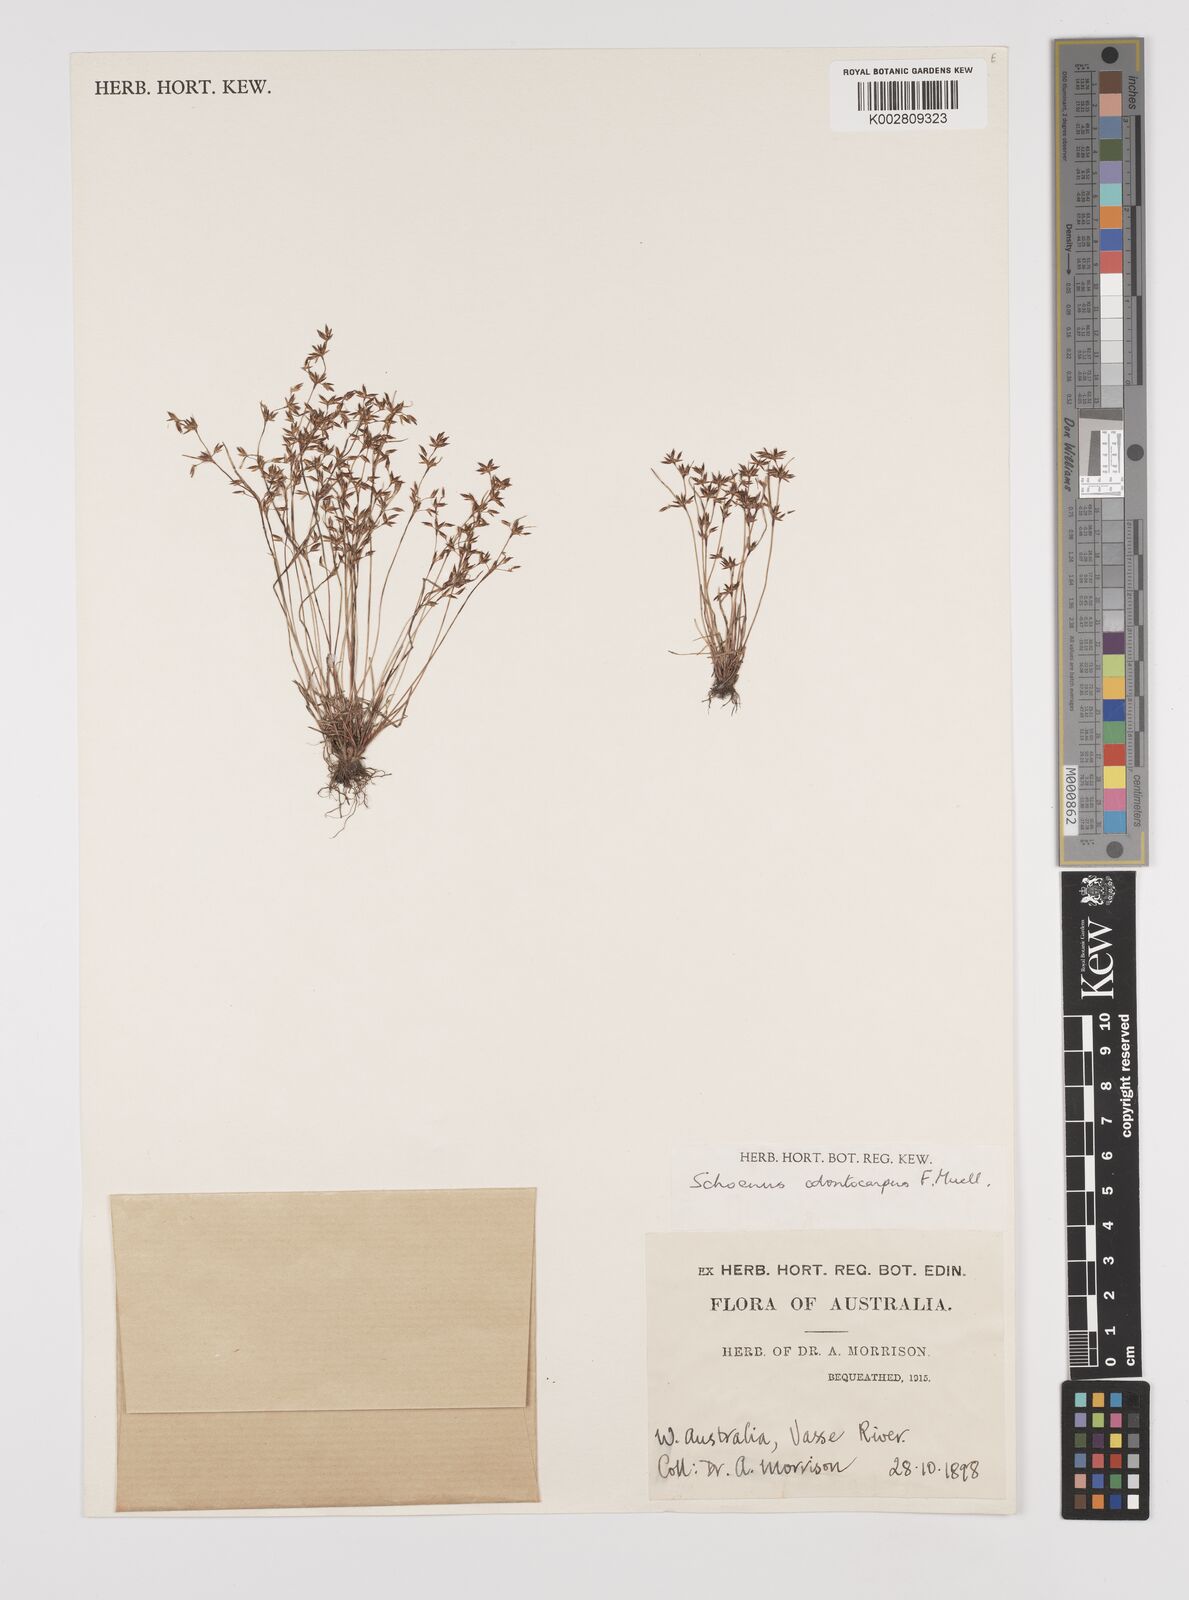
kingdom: Plantae
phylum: Tracheophyta
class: Liliopsida
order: Poales
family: Cyperaceae
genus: Schoenus
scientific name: Schoenus odontocarpus
